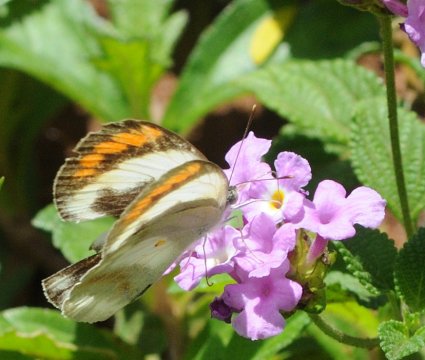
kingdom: Animalia
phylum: Arthropoda
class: Insecta
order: Lepidoptera
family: Pieridae
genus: Colotis
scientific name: Colotis euippe
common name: Round-winged Orange Tip
